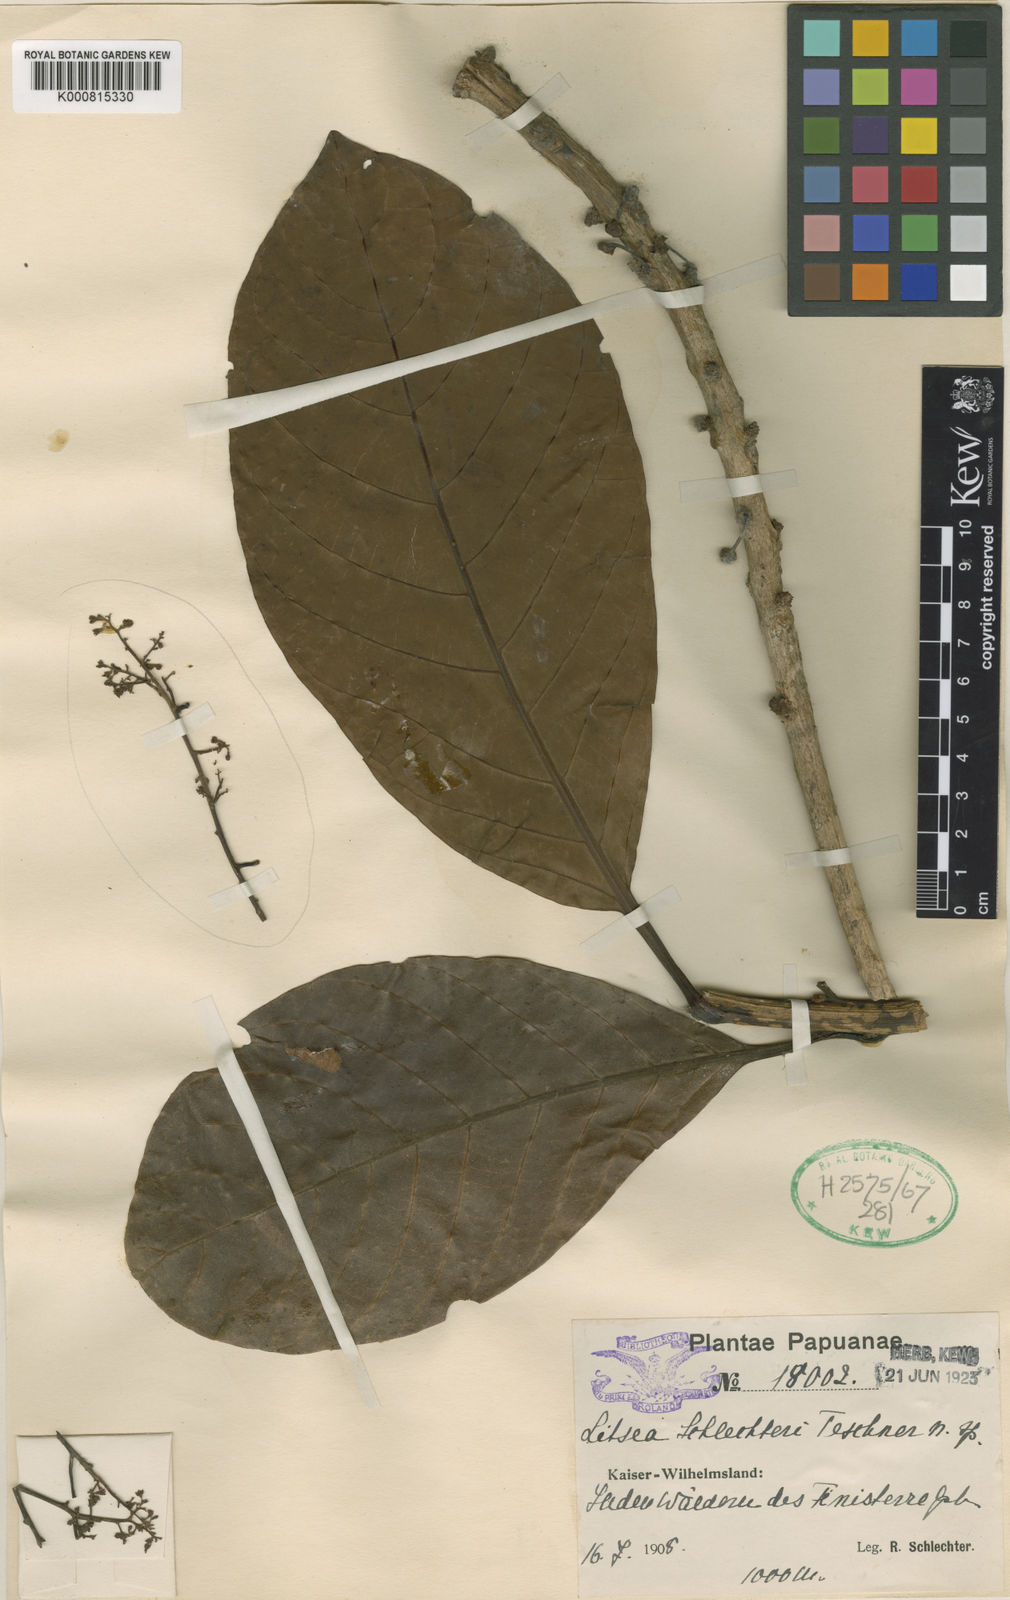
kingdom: Plantae
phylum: Tracheophyta
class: Magnoliopsida
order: Laurales
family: Lauraceae
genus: Litsea
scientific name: Litsea schlechteri
